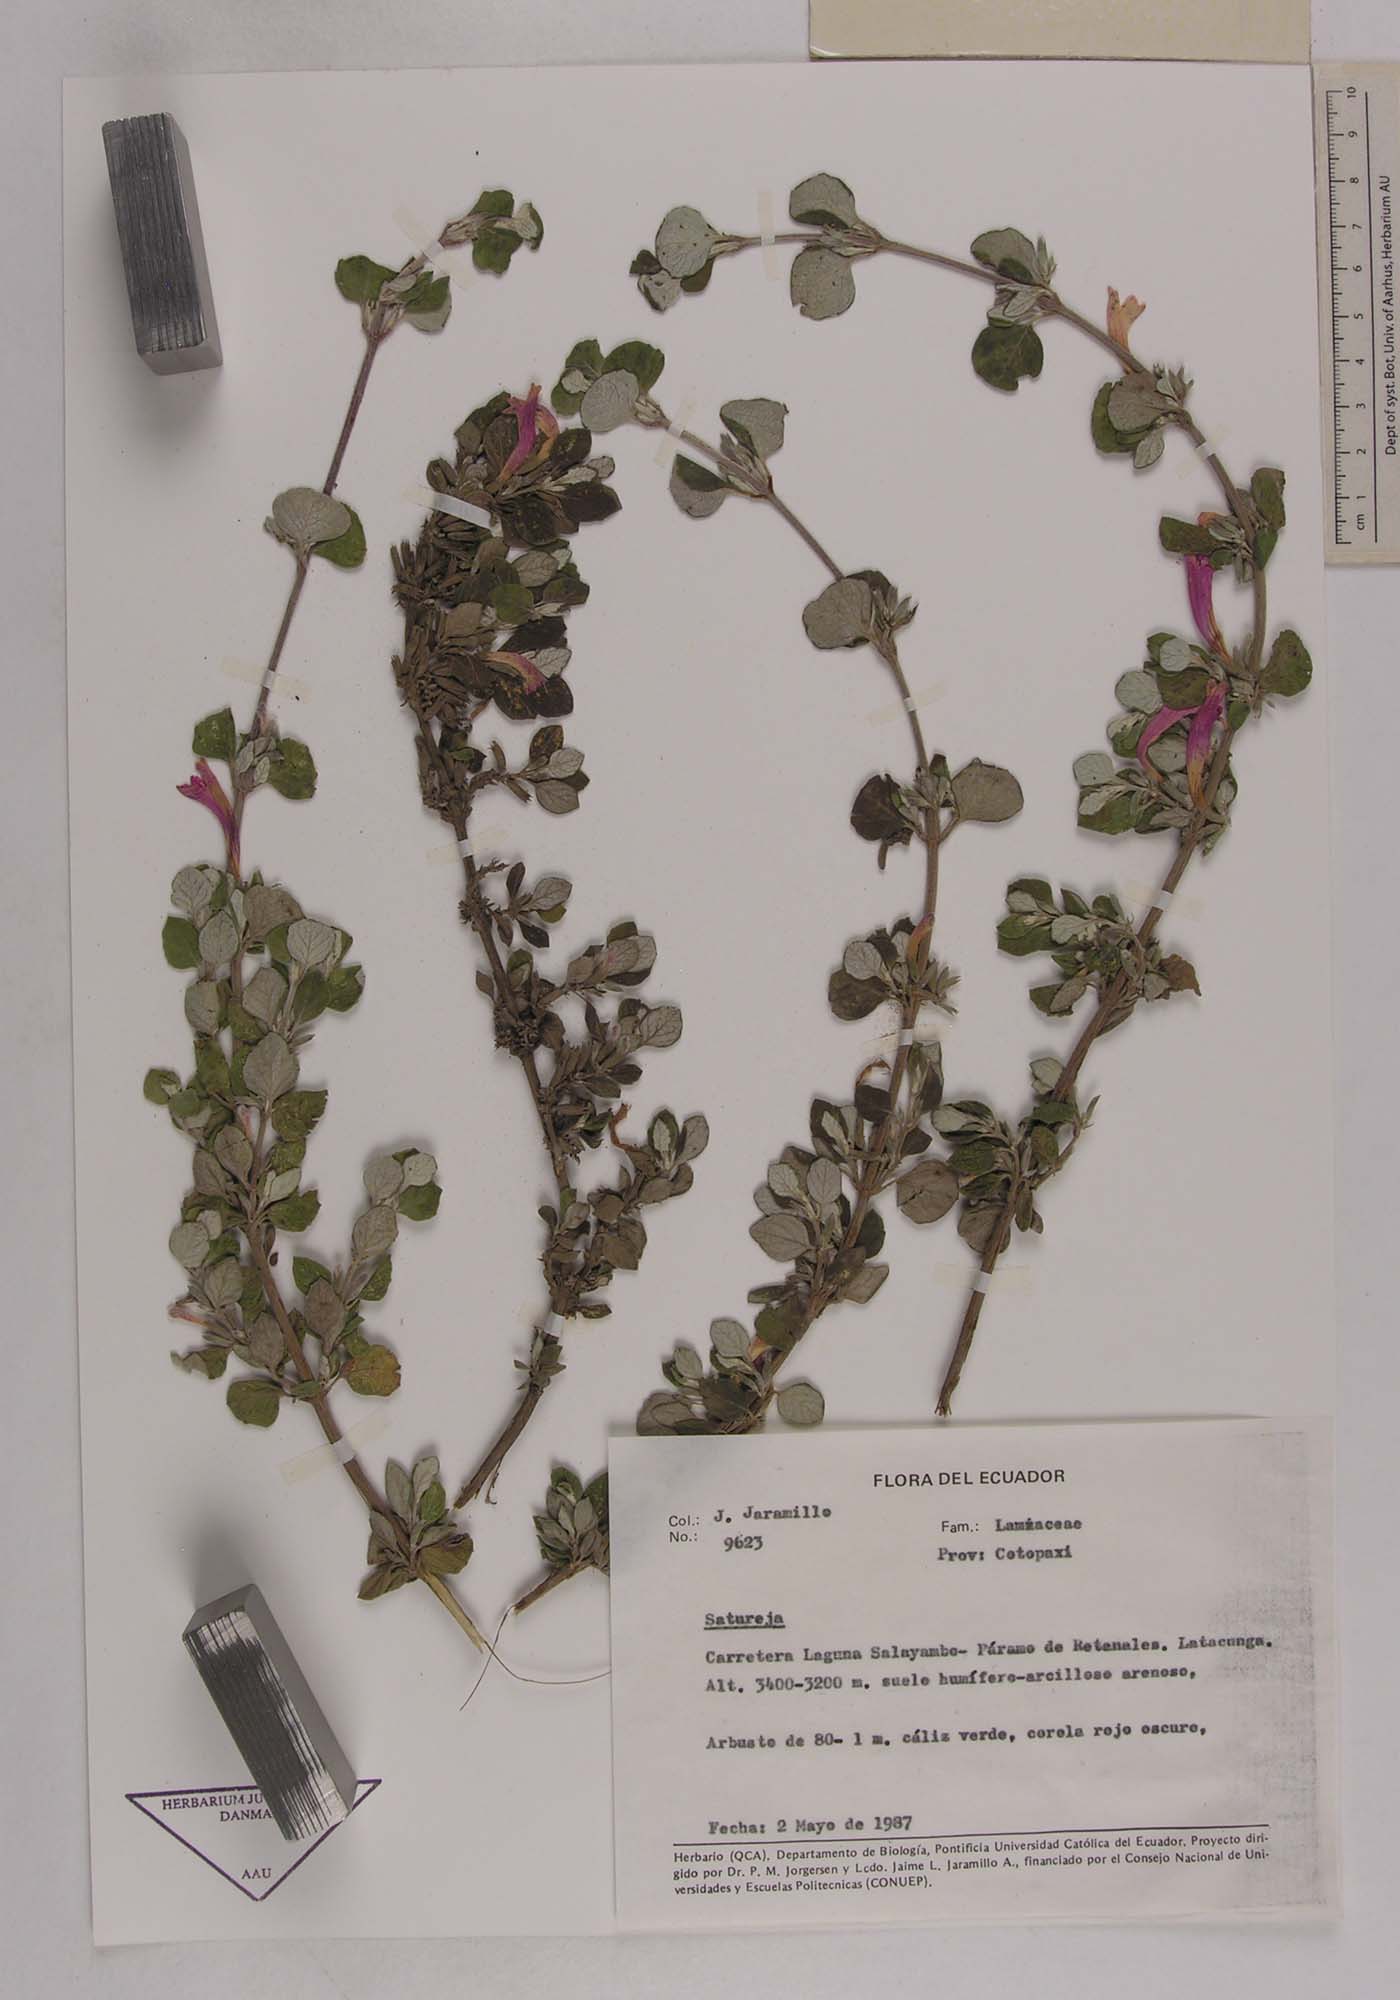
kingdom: Plantae
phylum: Tracheophyta
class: Magnoliopsida
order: Lamiales
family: Lamiaceae
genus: Satureja
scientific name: Satureja
